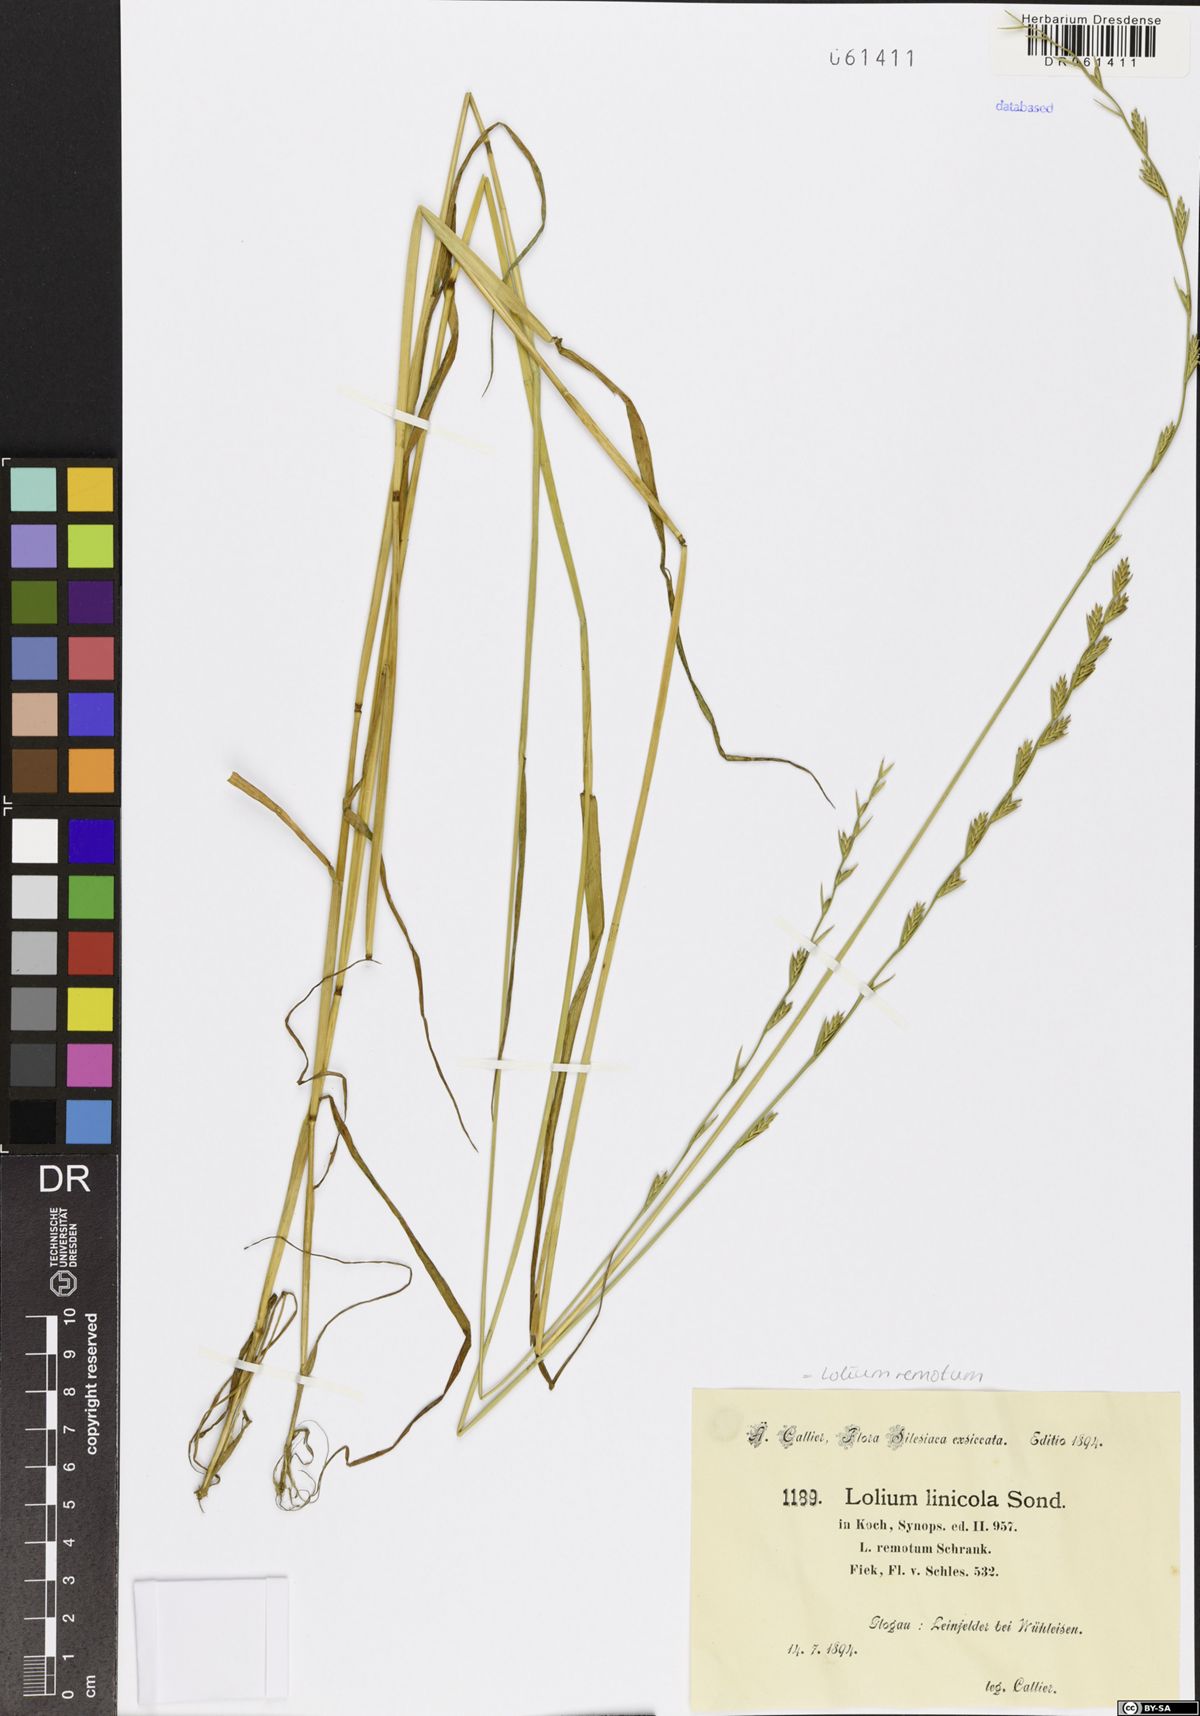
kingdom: Plantae
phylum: Tracheophyta
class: Liliopsida
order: Poales
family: Poaceae
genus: Lolium
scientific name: Lolium remotum
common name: Flaxfield rye-grass
